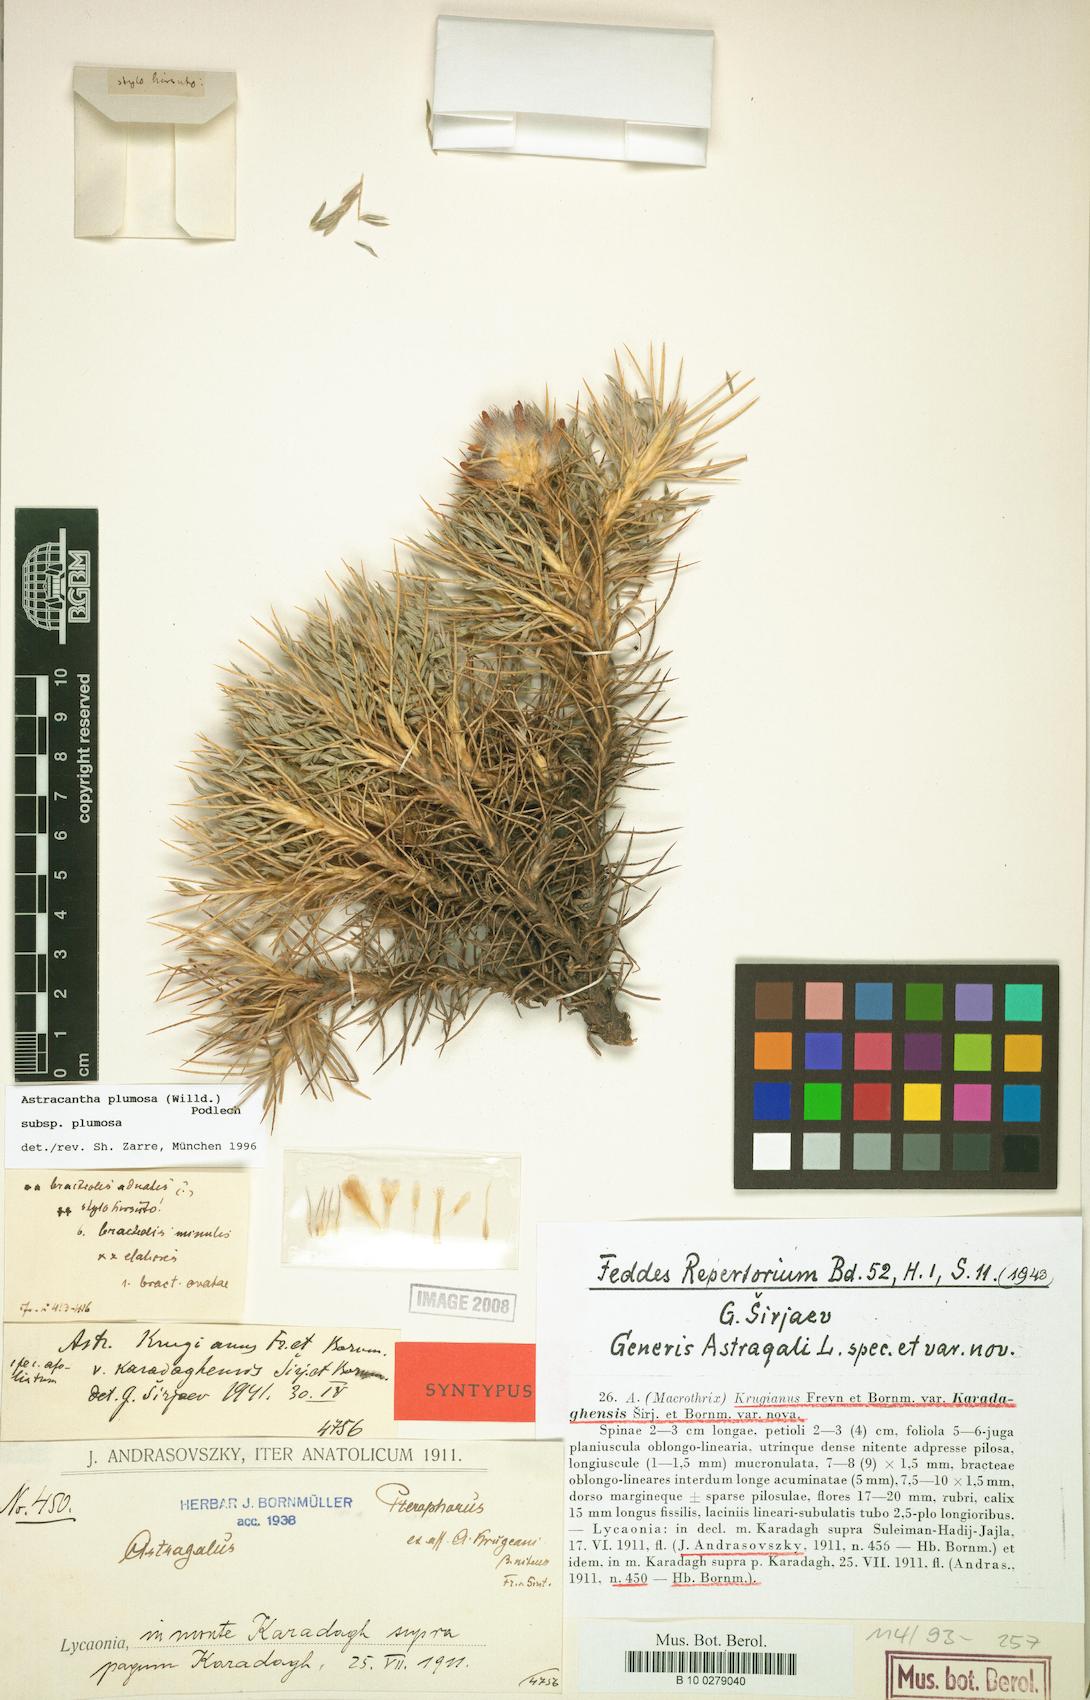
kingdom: Plantae
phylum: Tracheophyta
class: Magnoliopsida
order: Fabales
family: Fabaceae
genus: Astragalus
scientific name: Astragalus plumosus
